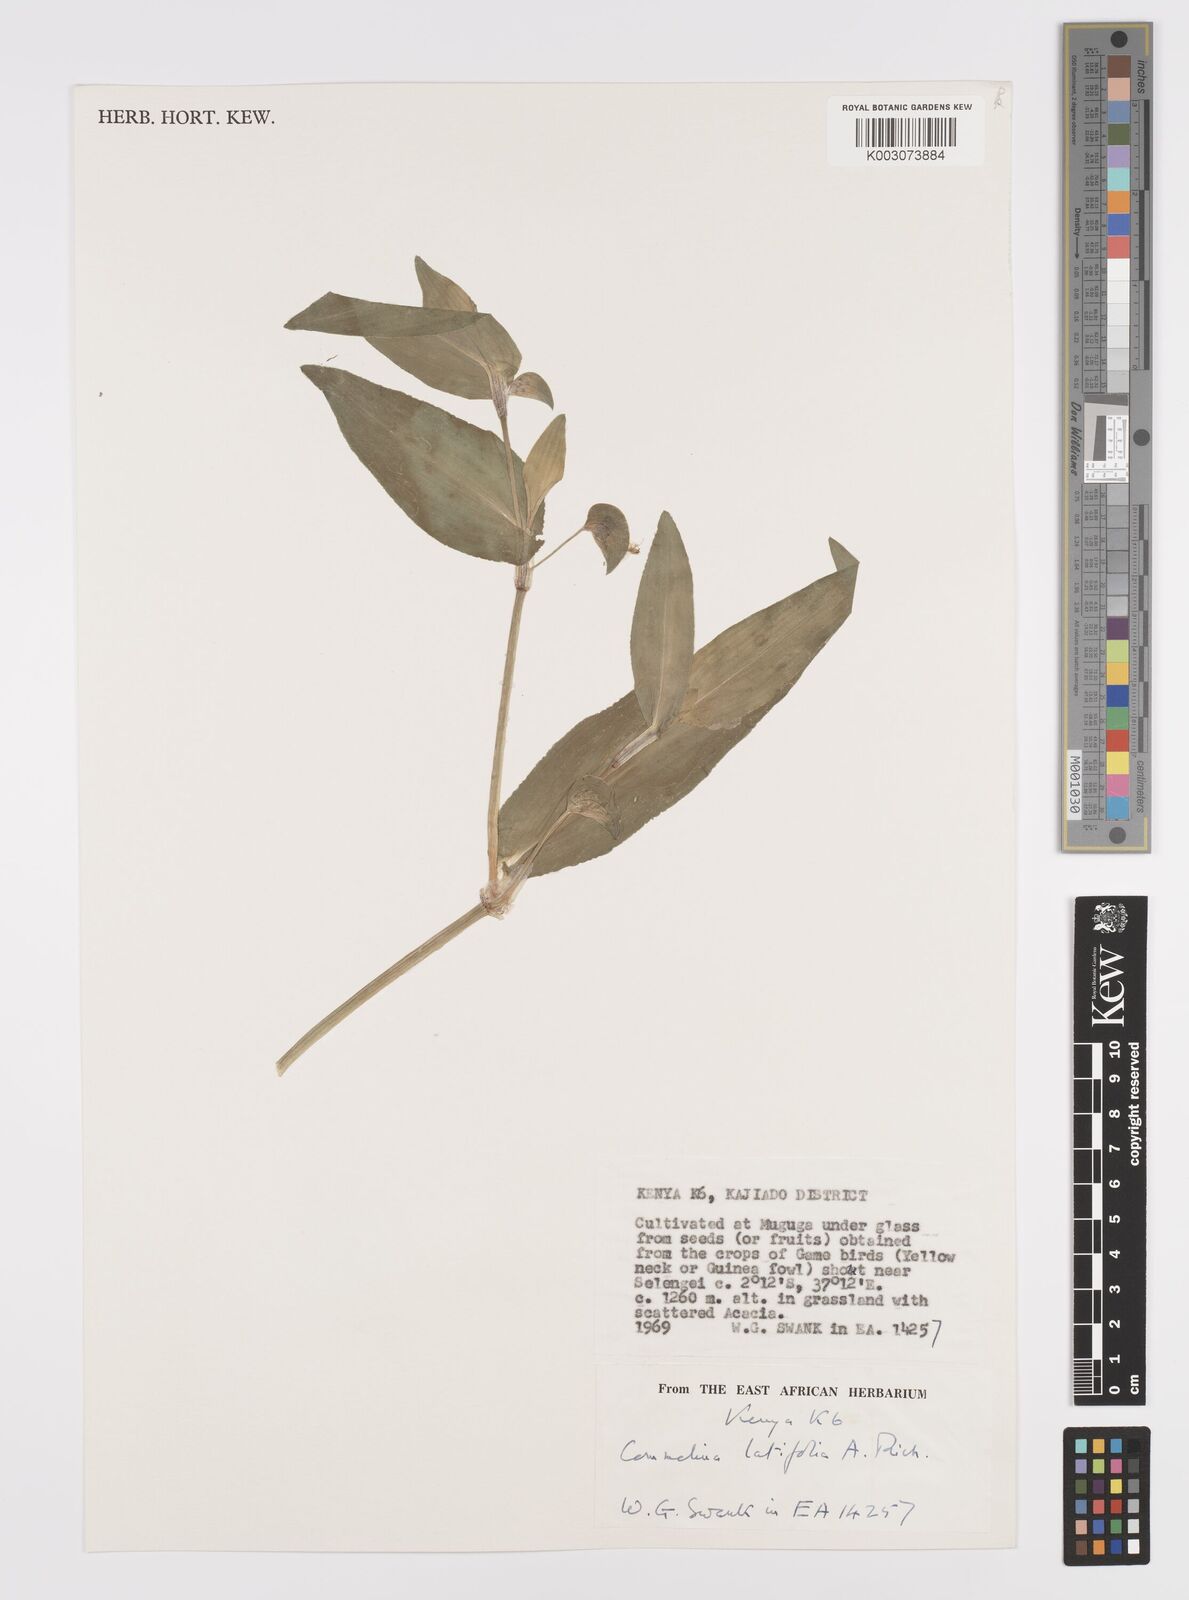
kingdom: Plantae
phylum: Tracheophyta
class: Liliopsida
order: Commelinales
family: Commelinaceae
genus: Commelina
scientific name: Commelina latifolia
